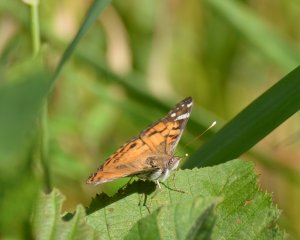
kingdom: Animalia
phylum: Arthropoda
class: Insecta
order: Lepidoptera
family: Nymphalidae
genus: Vanessa
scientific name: Vanessa virginiensis
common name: American Lady
